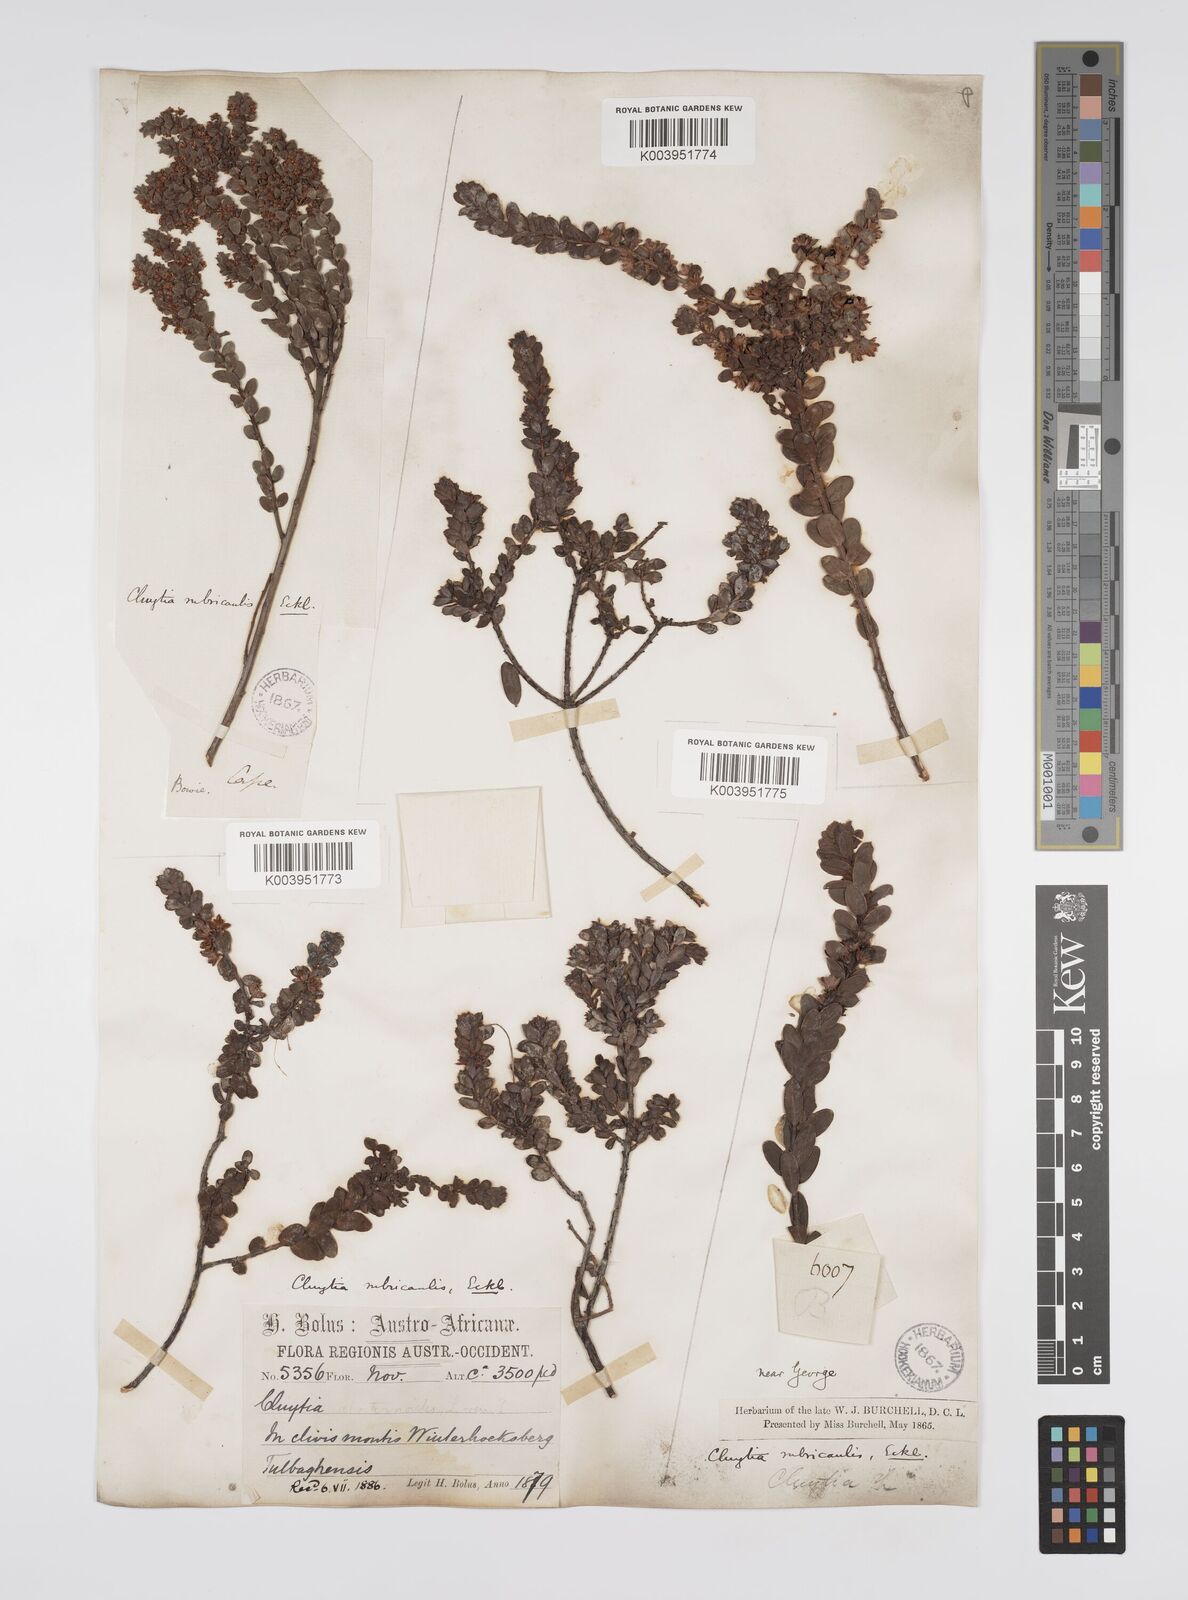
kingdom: Plantae
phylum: Tracheophyta
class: Magnoliopsida
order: Malpighiales
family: Peraceae
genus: Clutia
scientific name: Clutia rubricaulis
